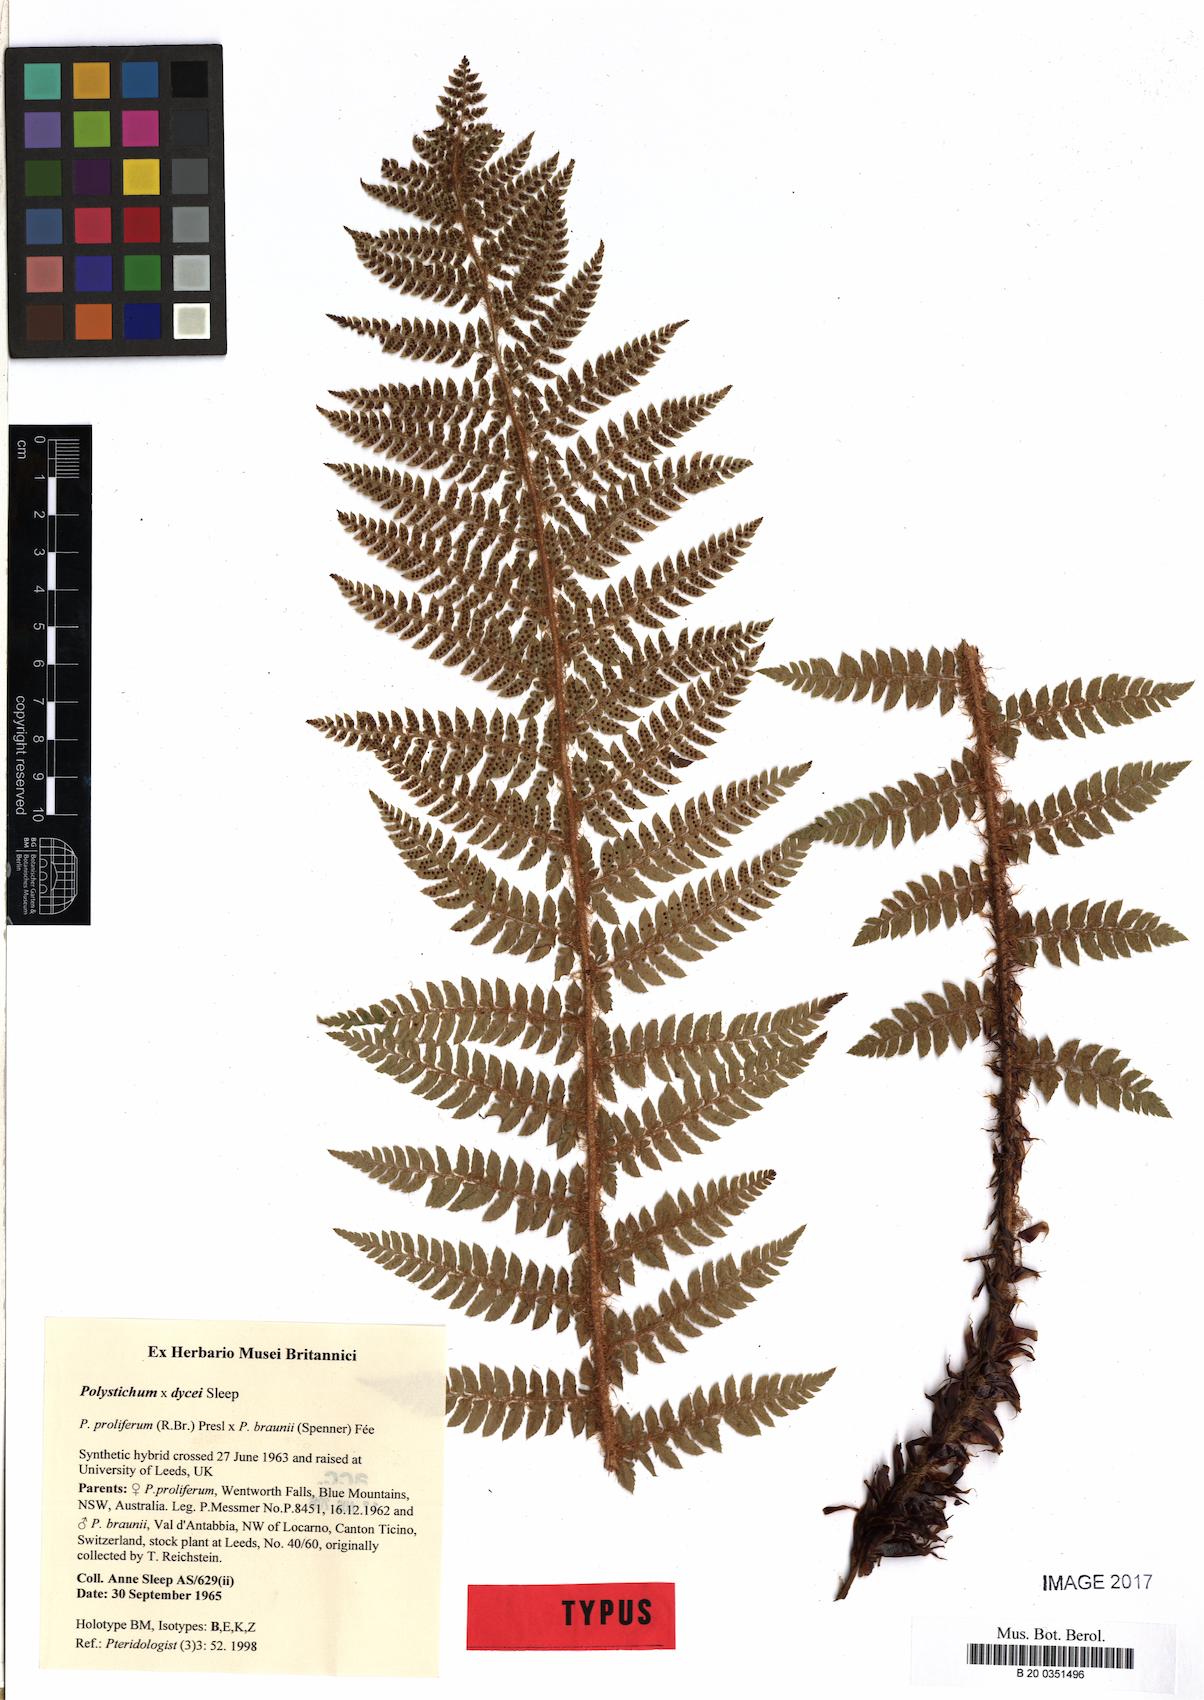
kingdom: Plantae
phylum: Tracheophyta
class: Polypodiopsida
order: Polypodiales
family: Dryopteridaceae
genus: Polystichum
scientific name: Polystichum dycei
